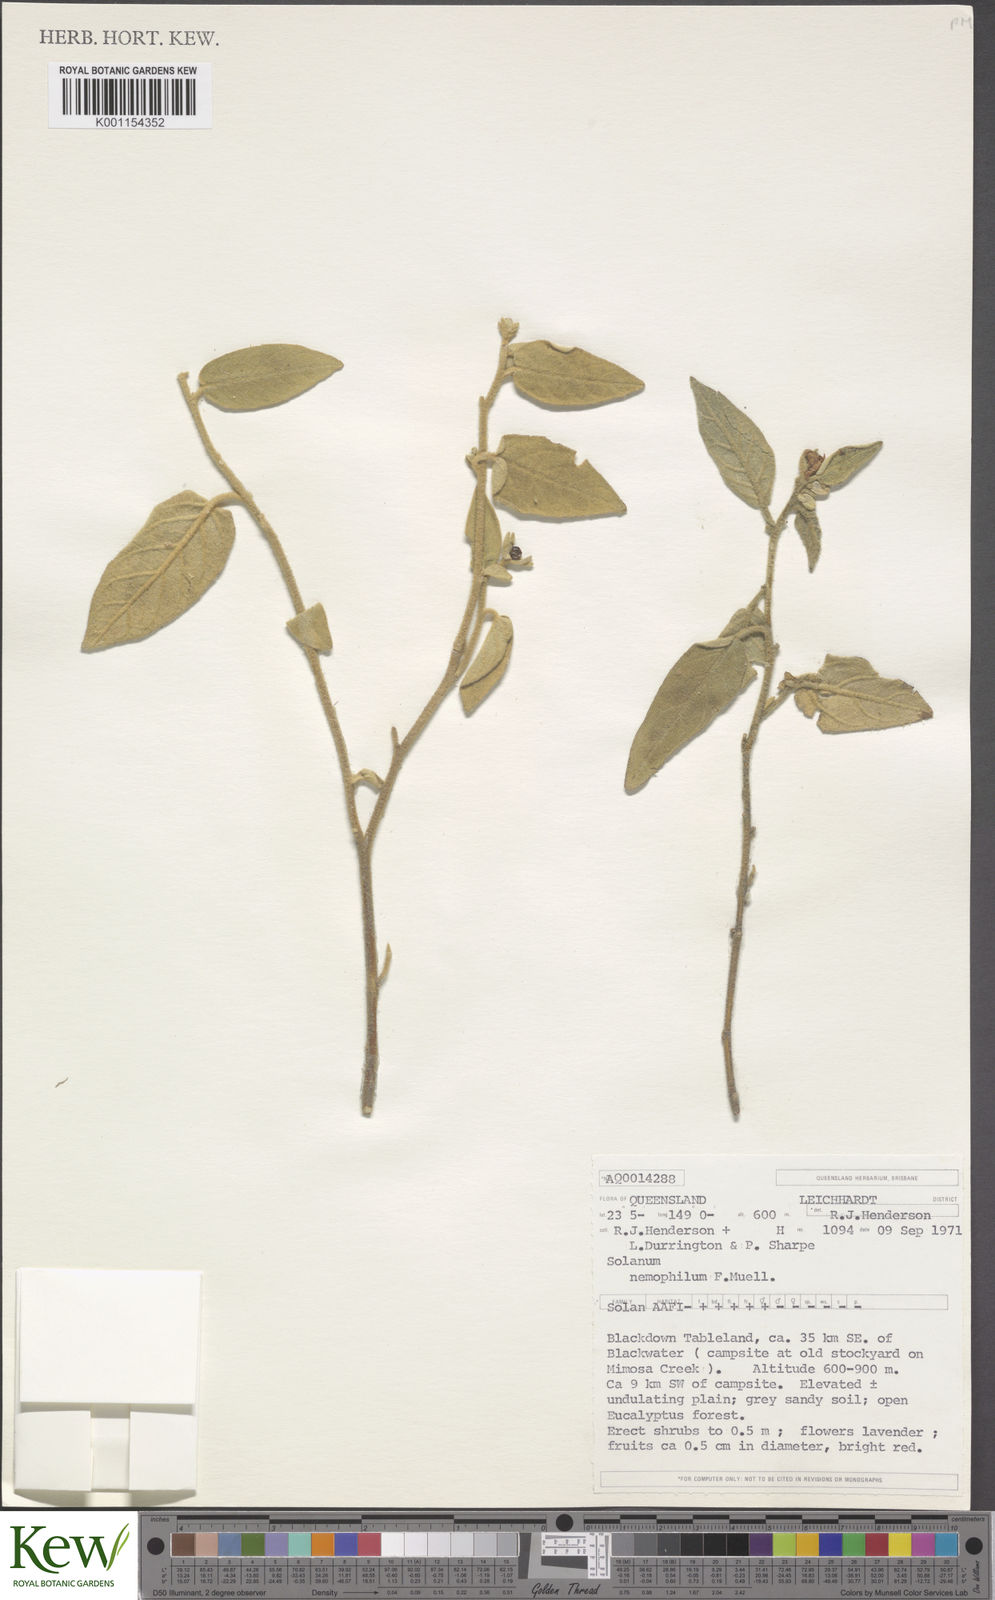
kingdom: Plantae
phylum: Tracheophyta
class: Magnoliopsida
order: Solanales
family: Solanaceae
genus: Solanum
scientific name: Solanum nemophilum
